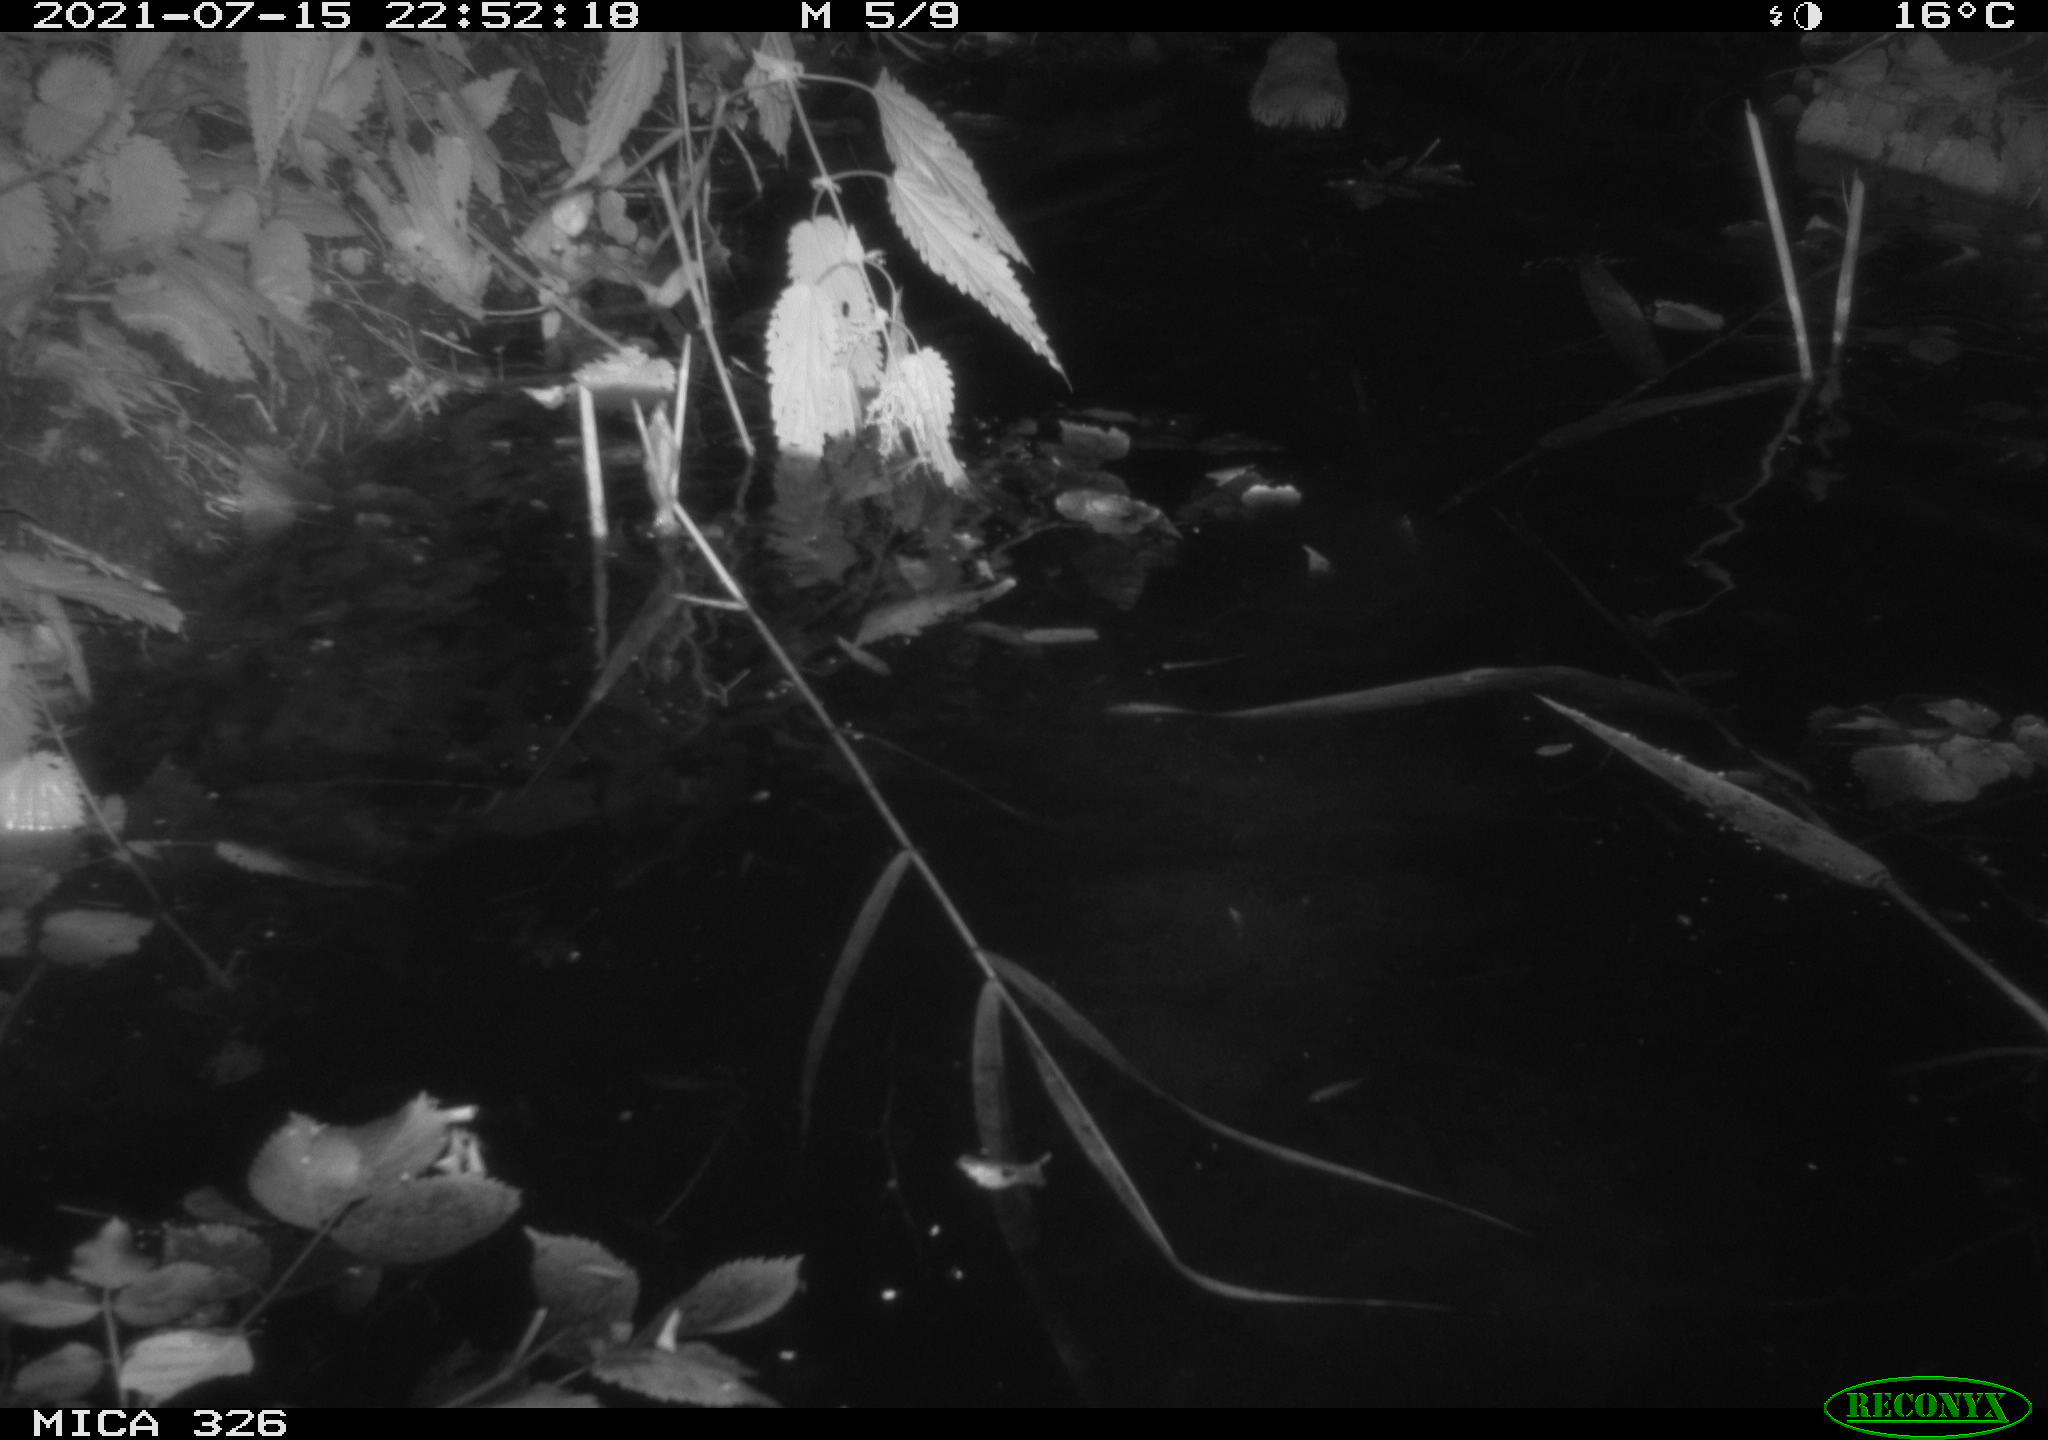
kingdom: Animalia
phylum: Chordata
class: Mammalia
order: Rodentia
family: Cricetidae
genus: Ondatra
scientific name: Ondatra zibethicus
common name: Muskrat
